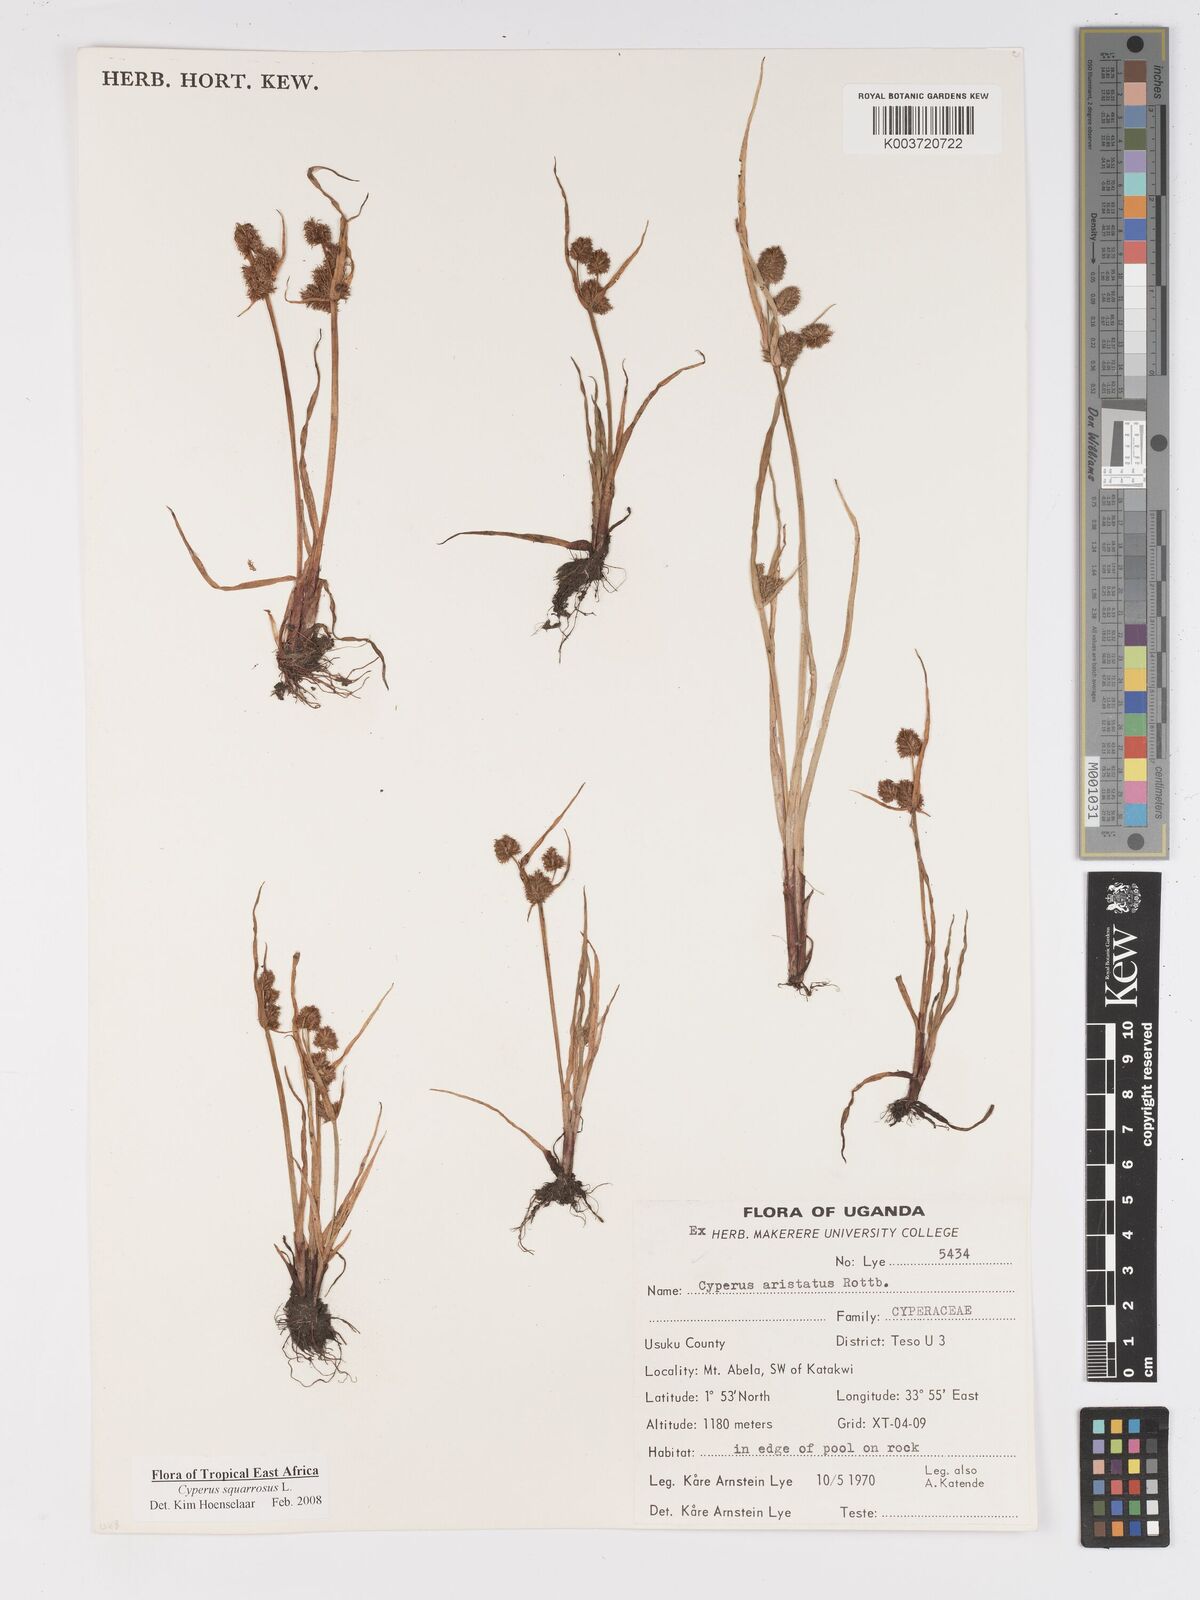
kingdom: Plantae
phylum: Tracheophyta
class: Liliopsida
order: Poales
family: Cyperaceae
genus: Cyperus
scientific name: Cyperus squarrosus
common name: Awned cyperus
